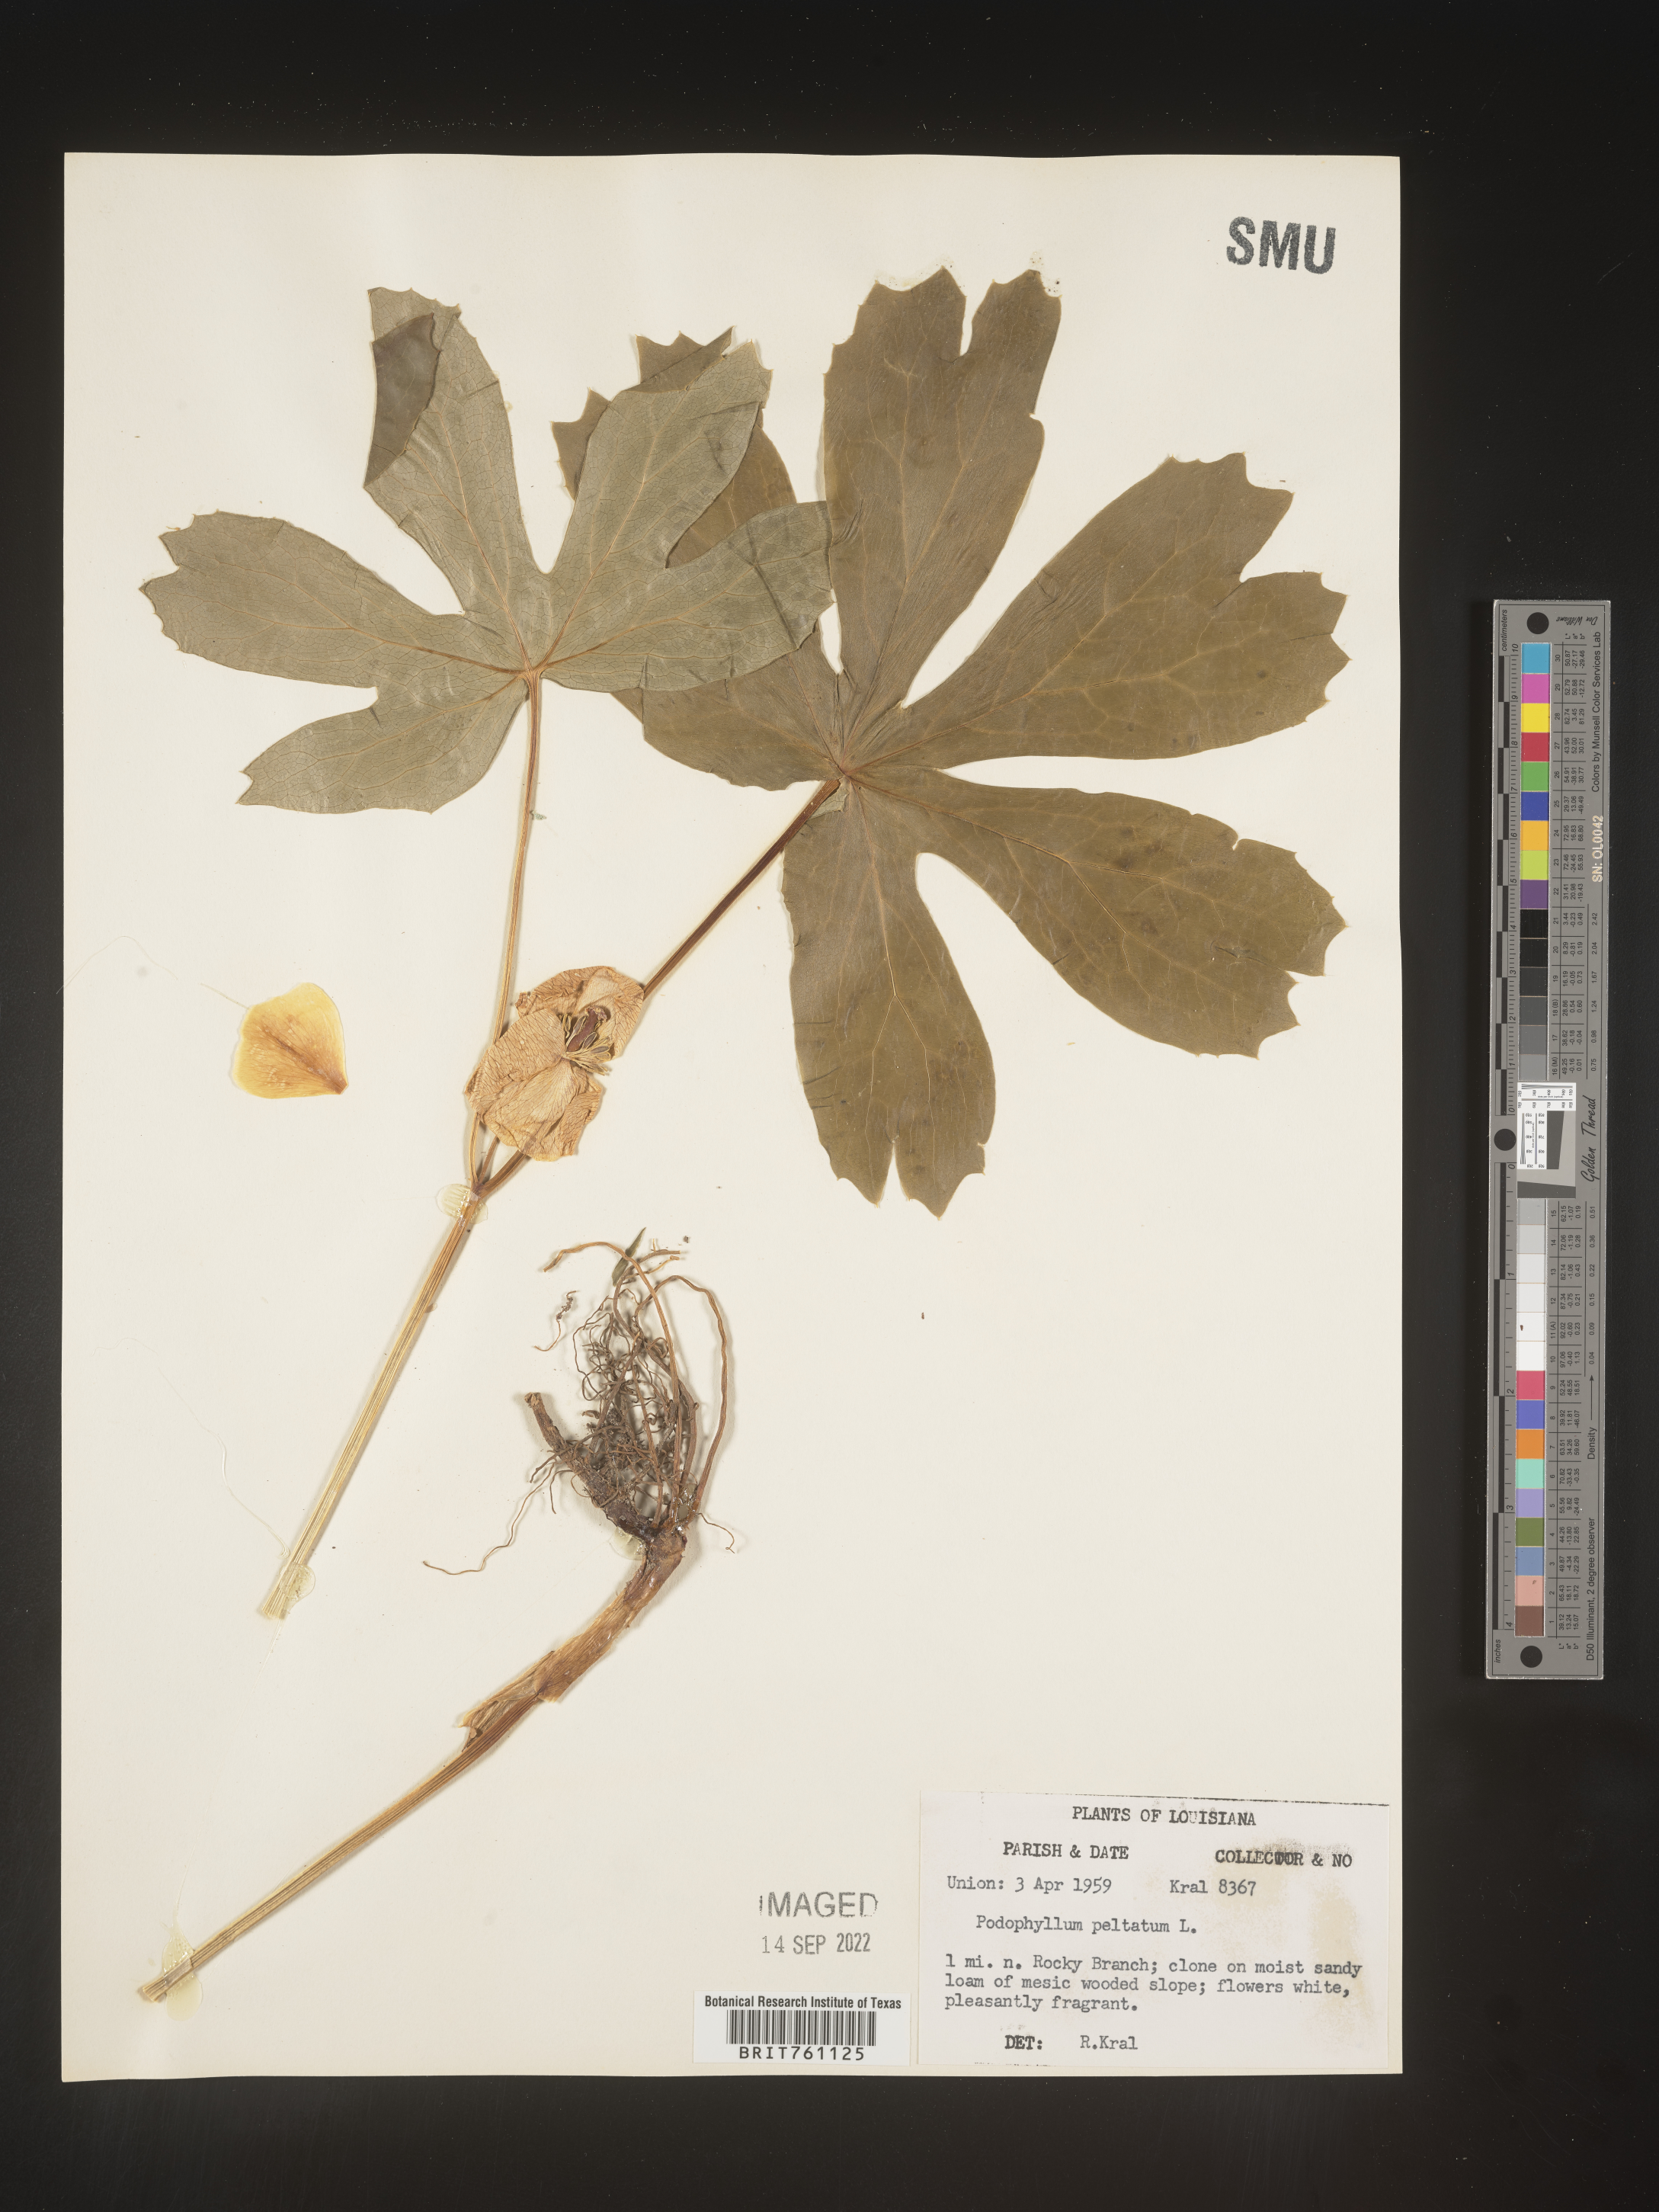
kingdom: Plantae
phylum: Tracheophyta
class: Magnoliopsida
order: Ranunculales
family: Berberidaceae
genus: Podophyllum
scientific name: Podophyllum peltatum
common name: Wild mandrake
